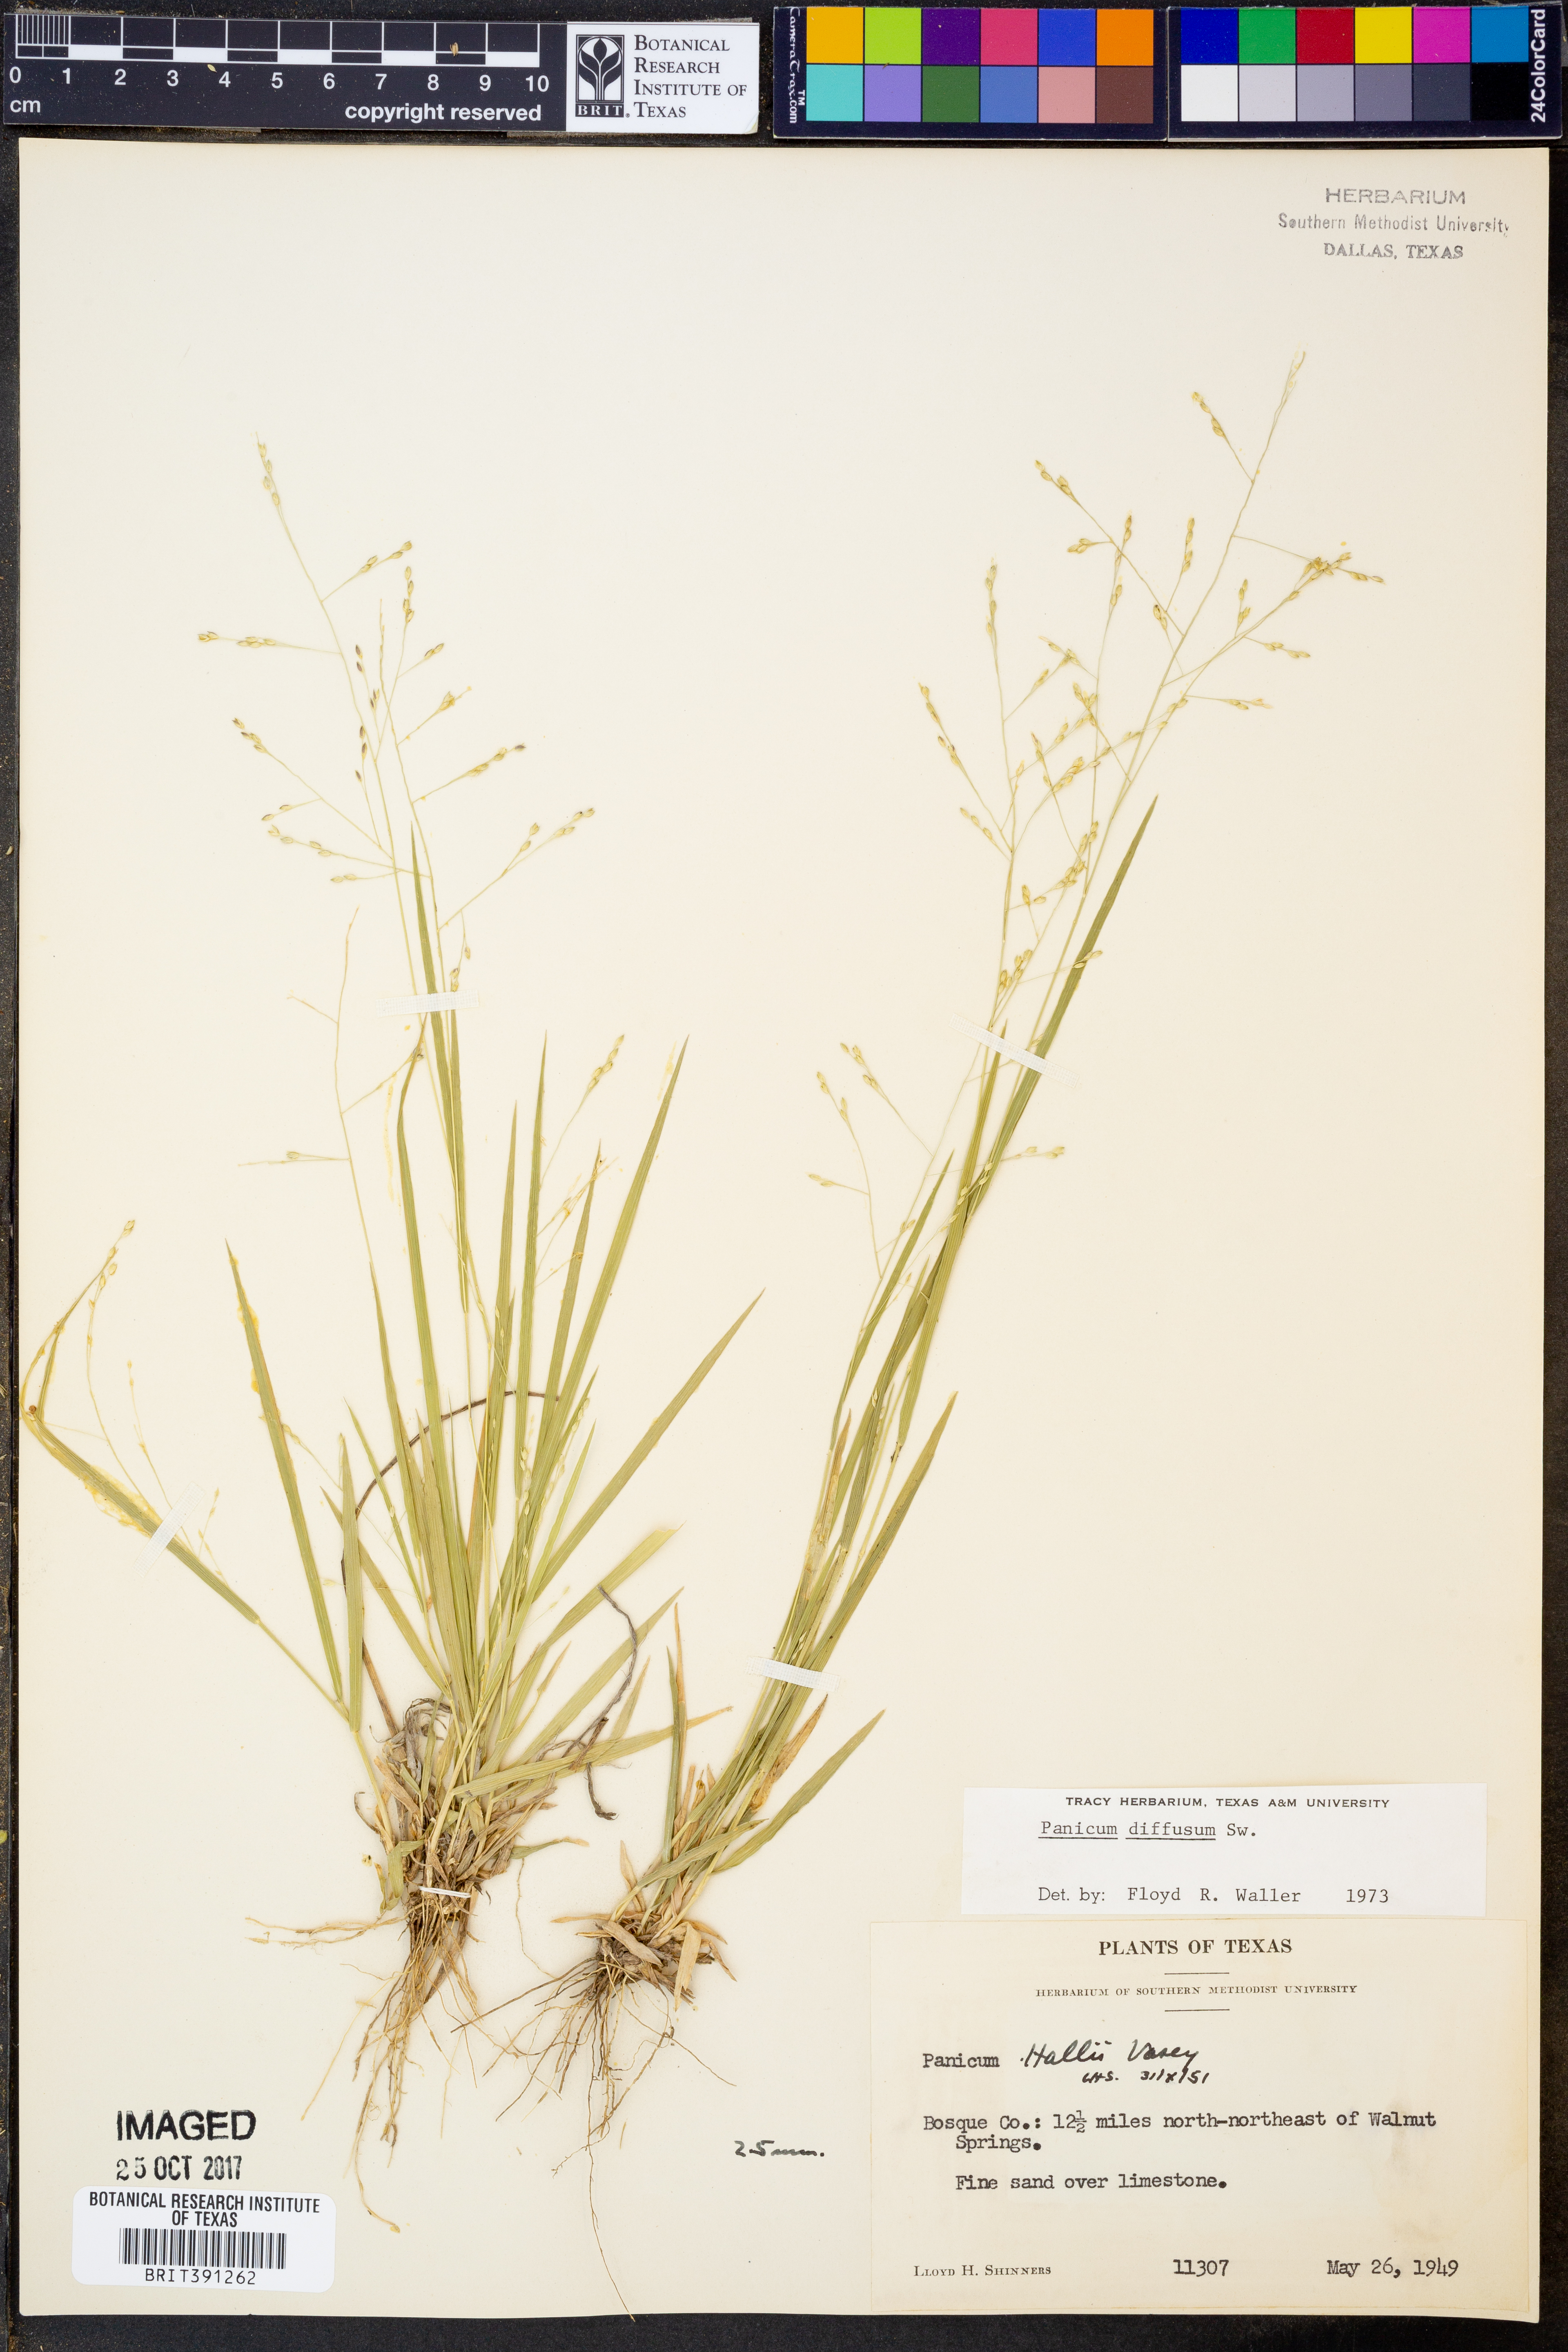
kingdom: Plantae
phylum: Tracheophyta
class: Liliopsida
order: Poales
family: Poaceae
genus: Panicum
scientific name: Panicum diffusum
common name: Spreading panicgrass
